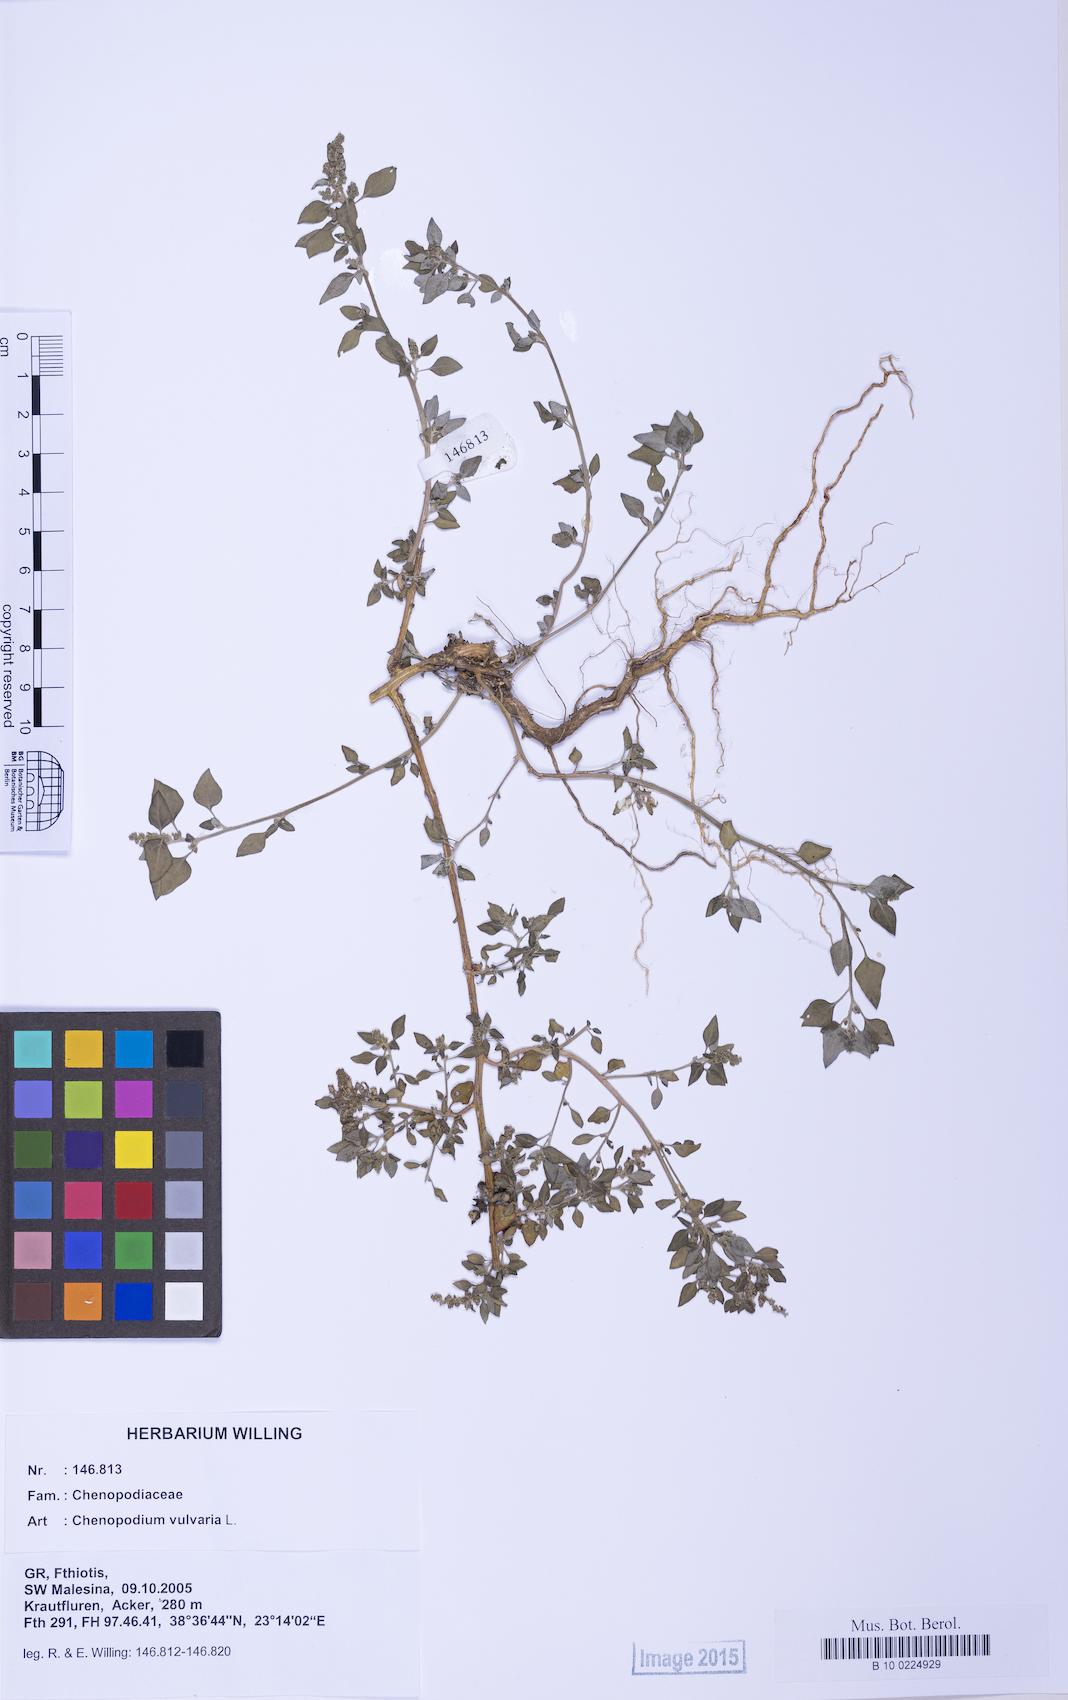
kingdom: Plantae
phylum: Tracheophyta
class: Magnoliopsida
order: Caryophyllales
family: Amaranthaceae
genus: Chenopodium
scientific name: Chenopodium vulvaria
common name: Stinking goosefoot
